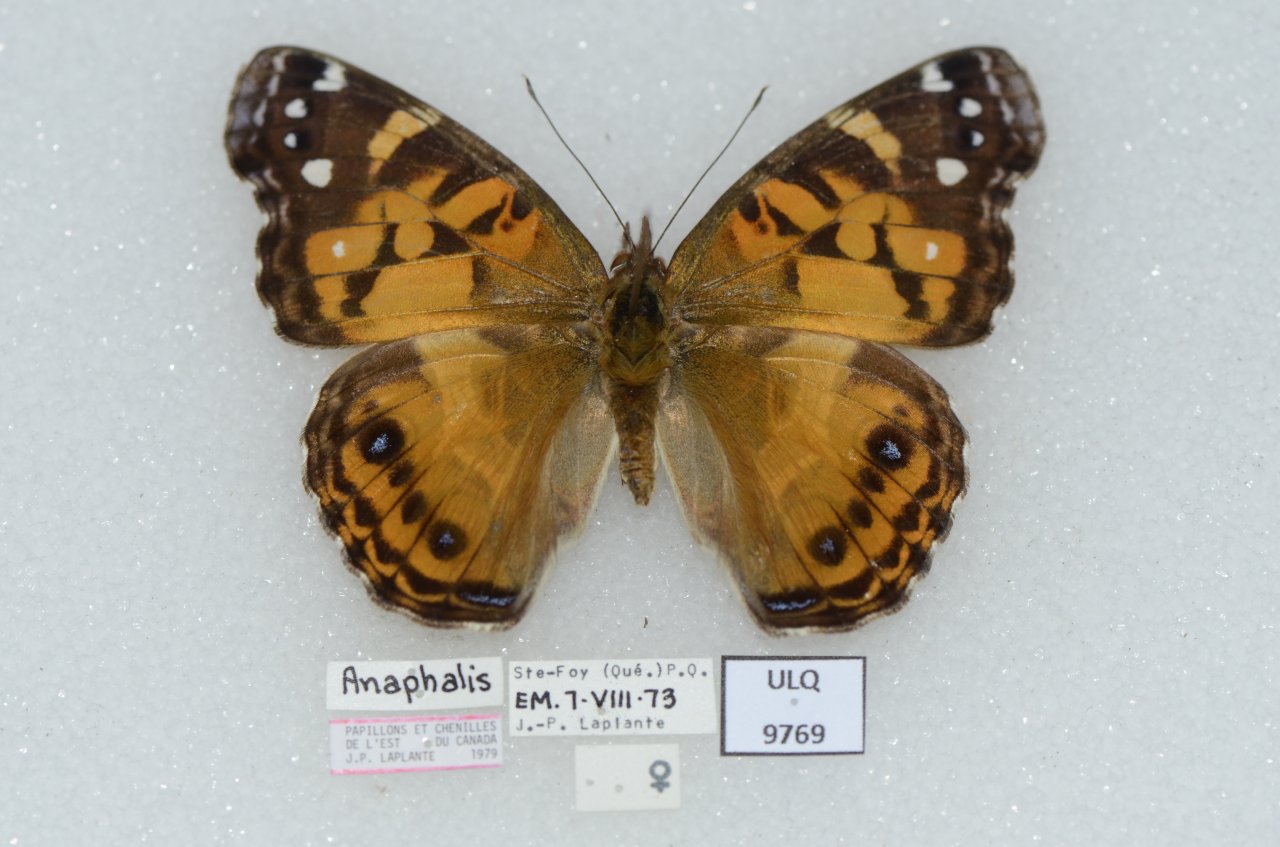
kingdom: Animalia
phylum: Arthropoda
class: Insecta
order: Lepidoptera
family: Nymphalidae
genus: Vanessa
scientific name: Vanessa virginiensis
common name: American Lady
